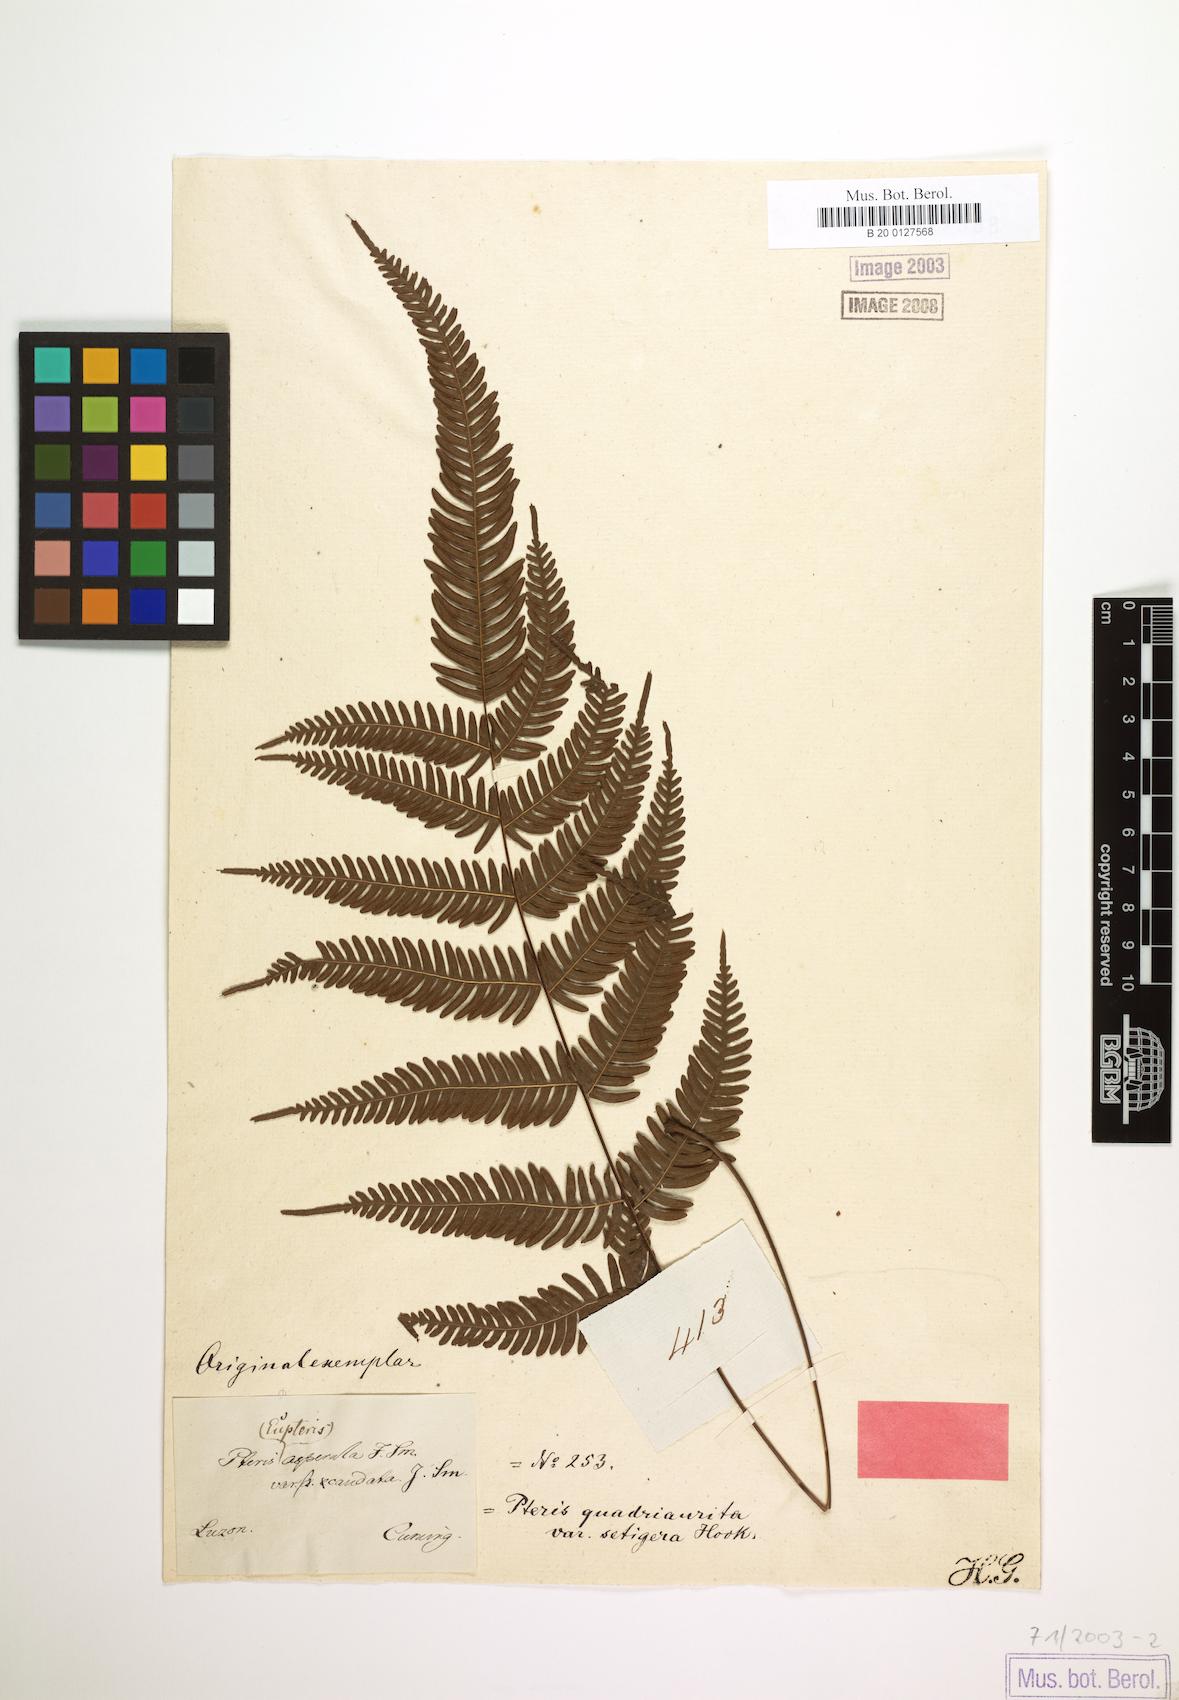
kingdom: Plantae
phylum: Tracheophyta
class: Polypodiopsida
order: Polypodiales
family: Pteridaceae
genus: Pteris
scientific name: Pteris oppositipinnata
